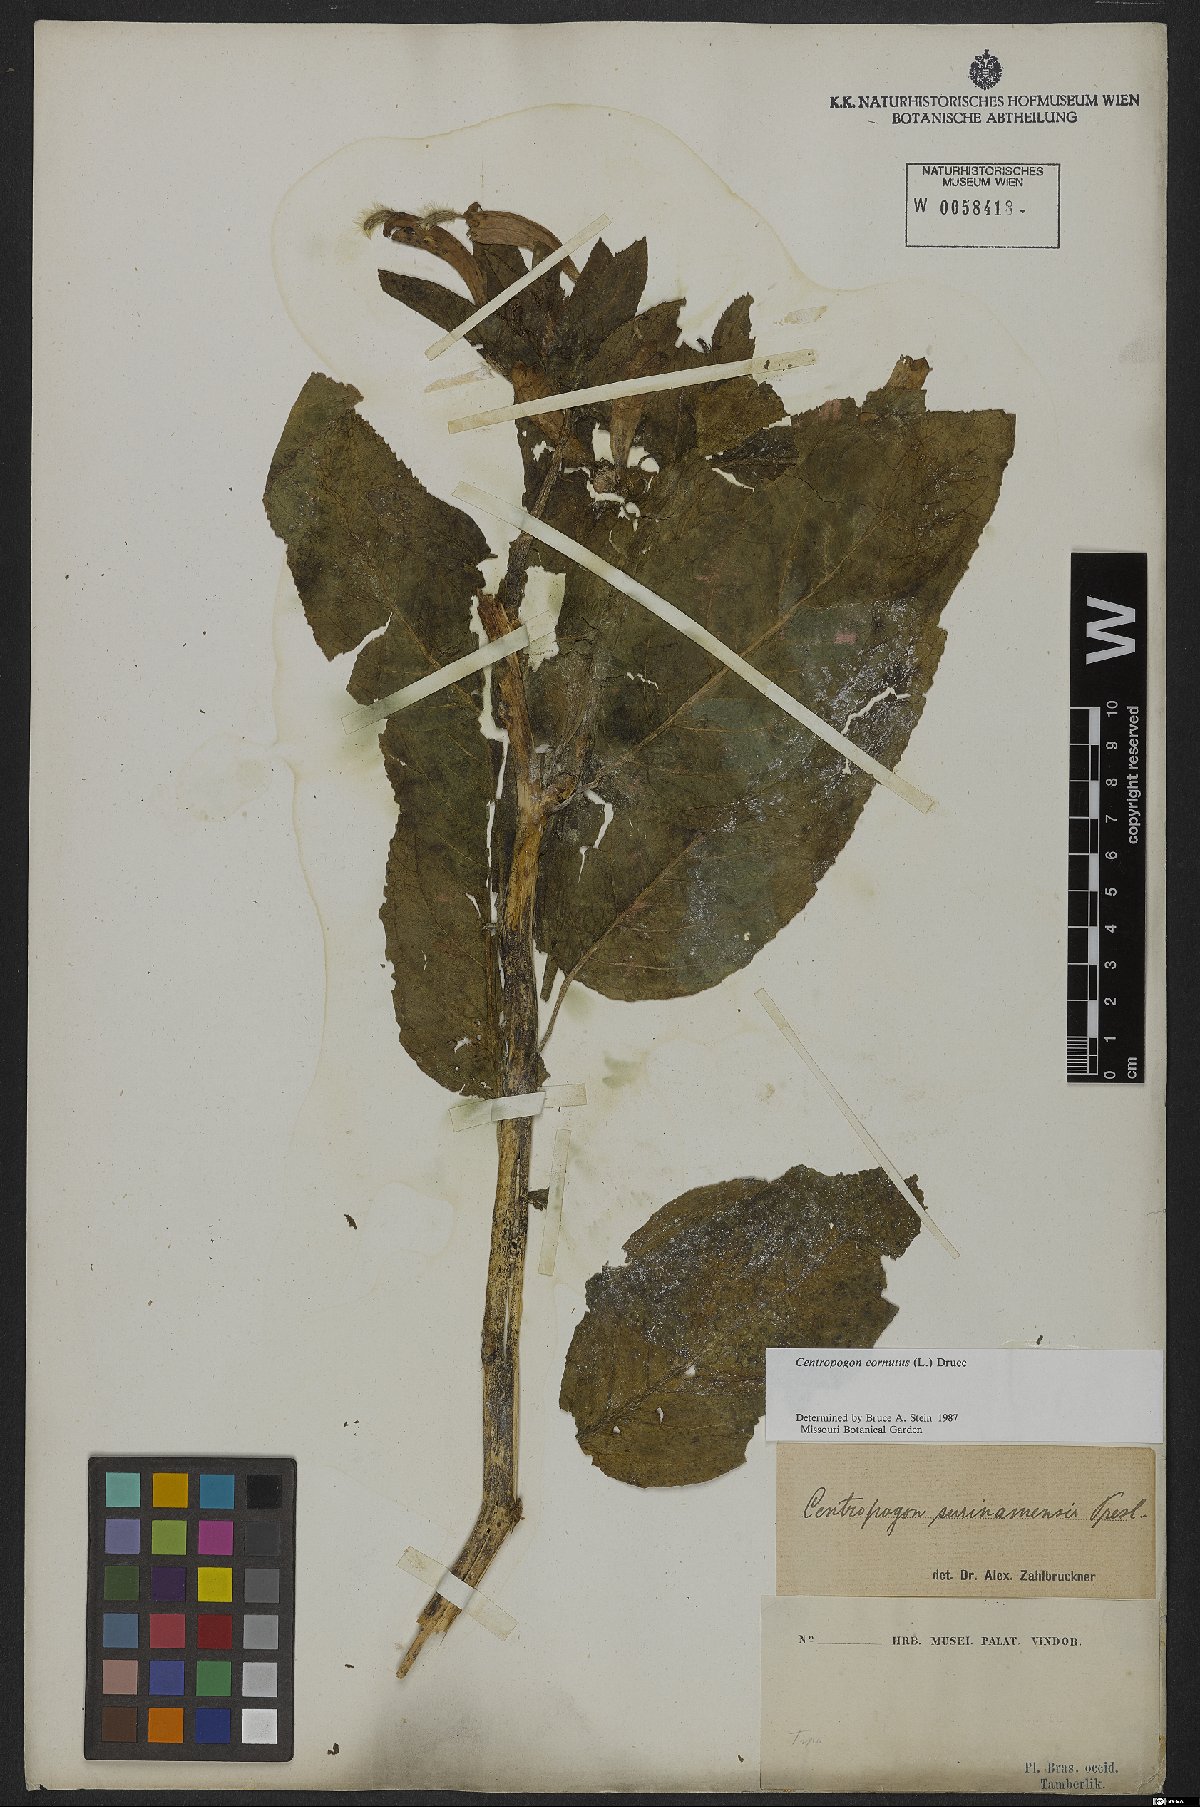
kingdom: Plantae
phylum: Tracheophyta
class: Magnoliopsida
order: Asterales
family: Campanulaceae
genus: Centropogon
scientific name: Centropogon cornutus
